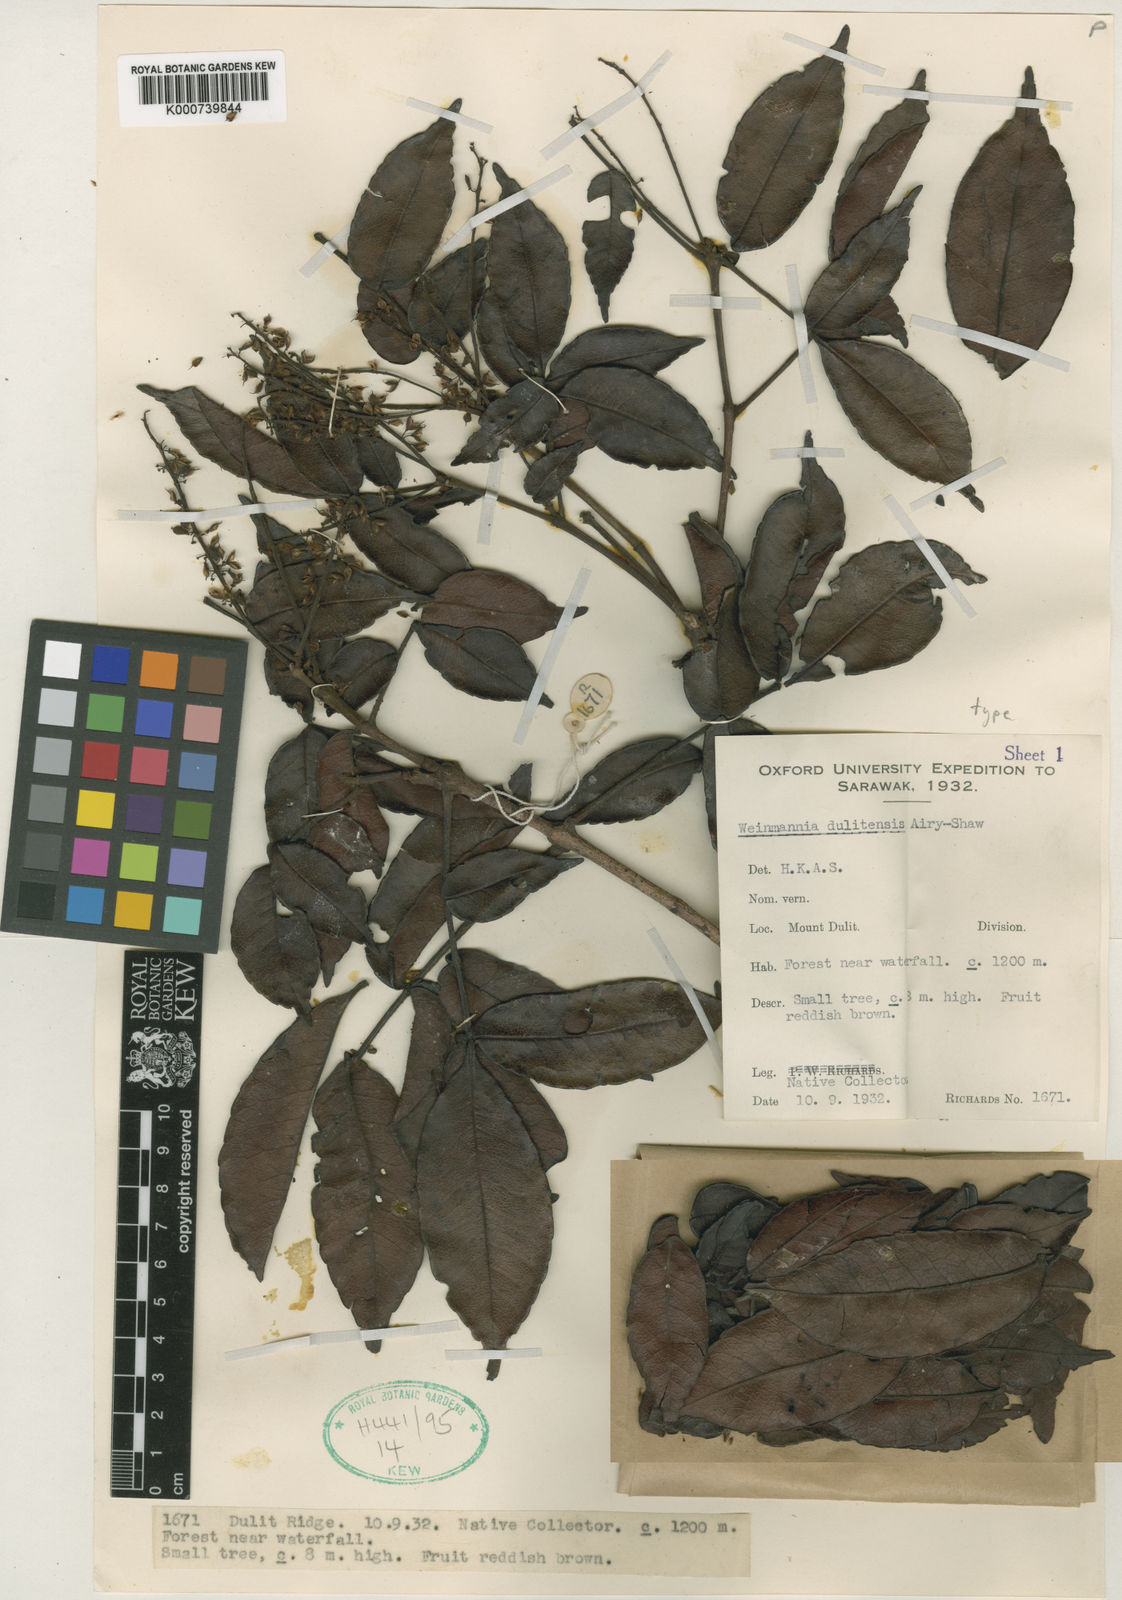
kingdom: Plantae
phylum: Tracheophyta
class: Magnoliopsida
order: Oxalidales
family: Cunoniaceae
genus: Pterophylla
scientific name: Pterophylla fraxinea
